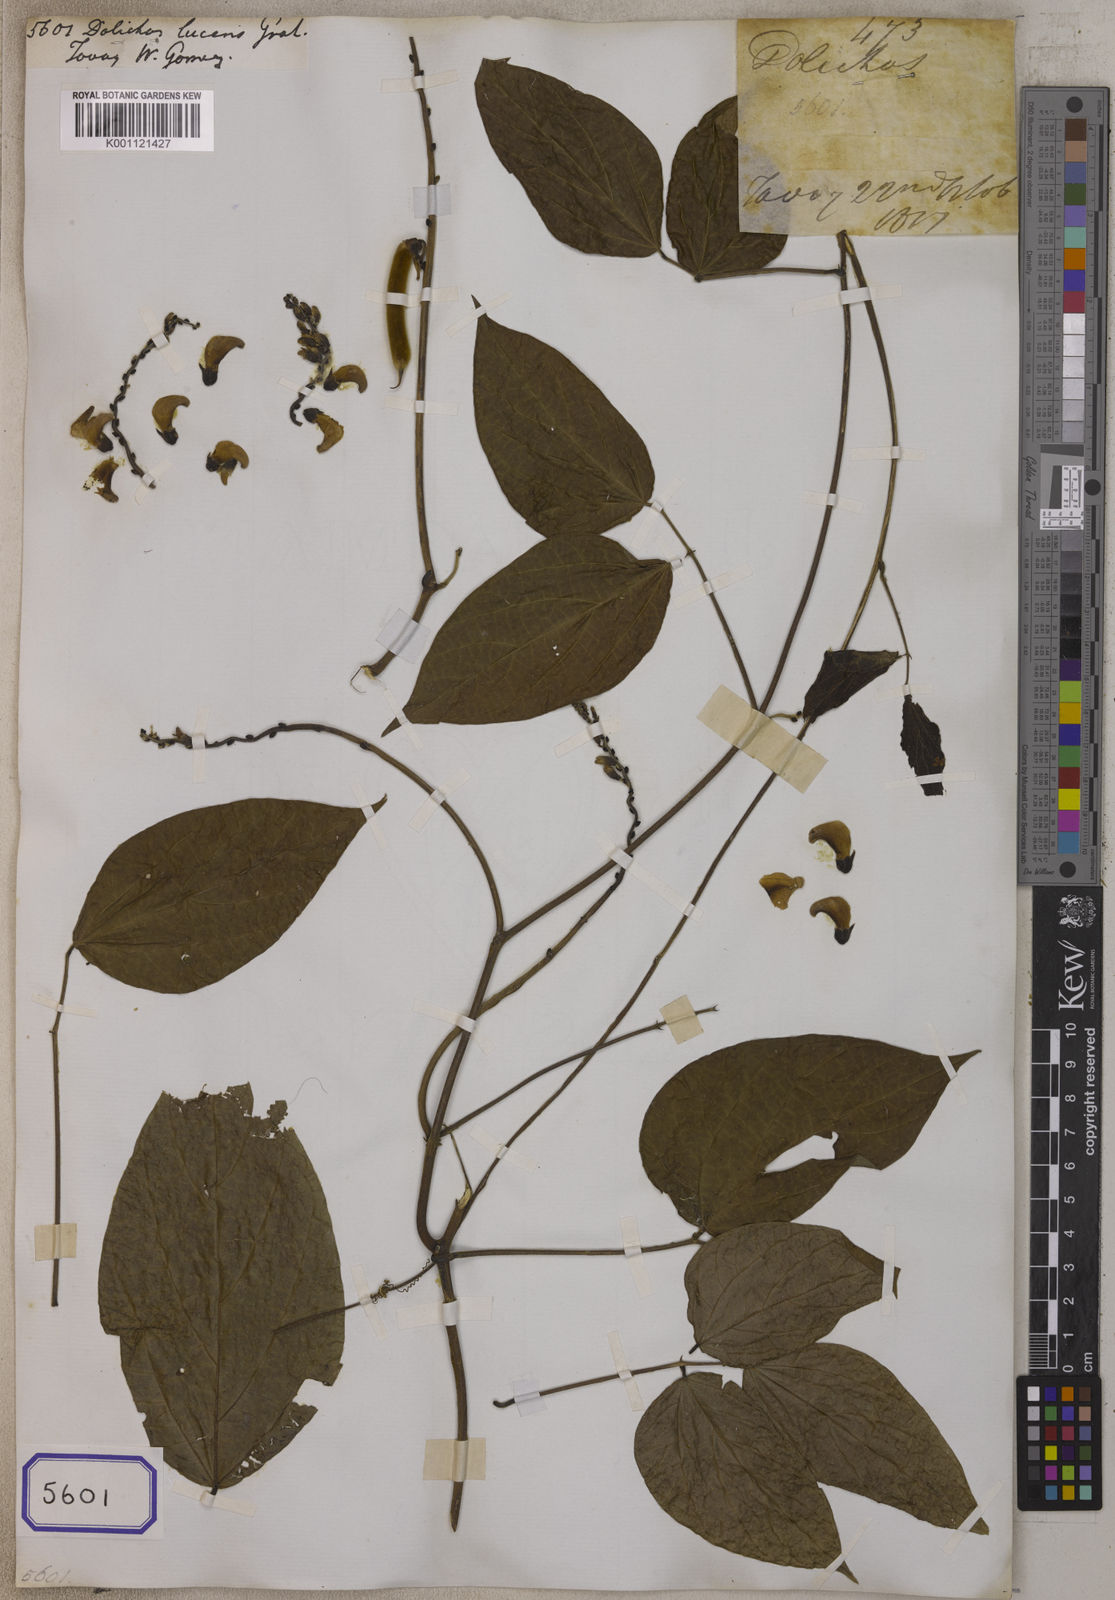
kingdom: Plantae
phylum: Tracheophyta
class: Magnoliopsida
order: Fabales
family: Fabaceae
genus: Phaseolus
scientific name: Phaseolus
